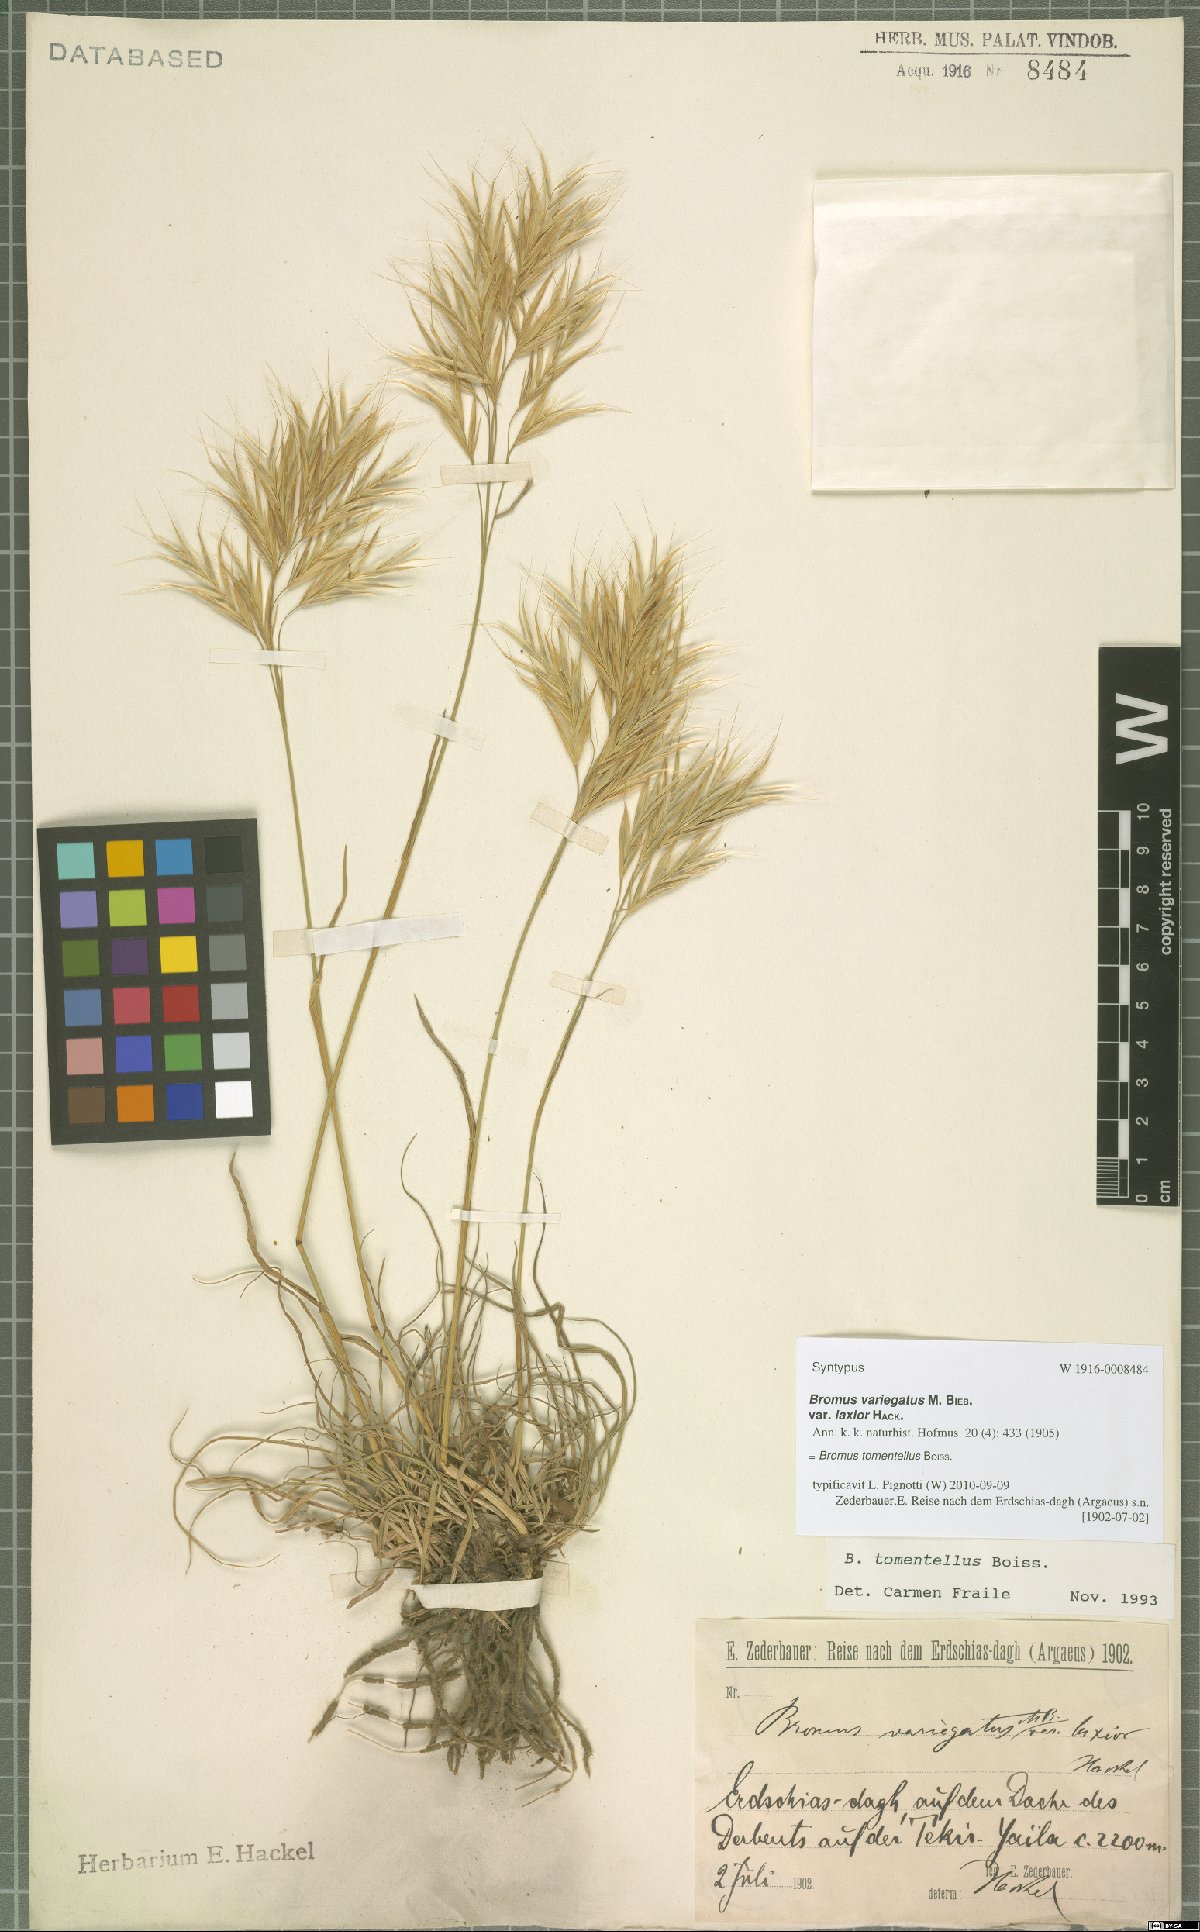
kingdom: Plantae
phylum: Tracheophyta
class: Liliopsida
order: Poales
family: Poaceae
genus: Bromus
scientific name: Bromus tomentellus
